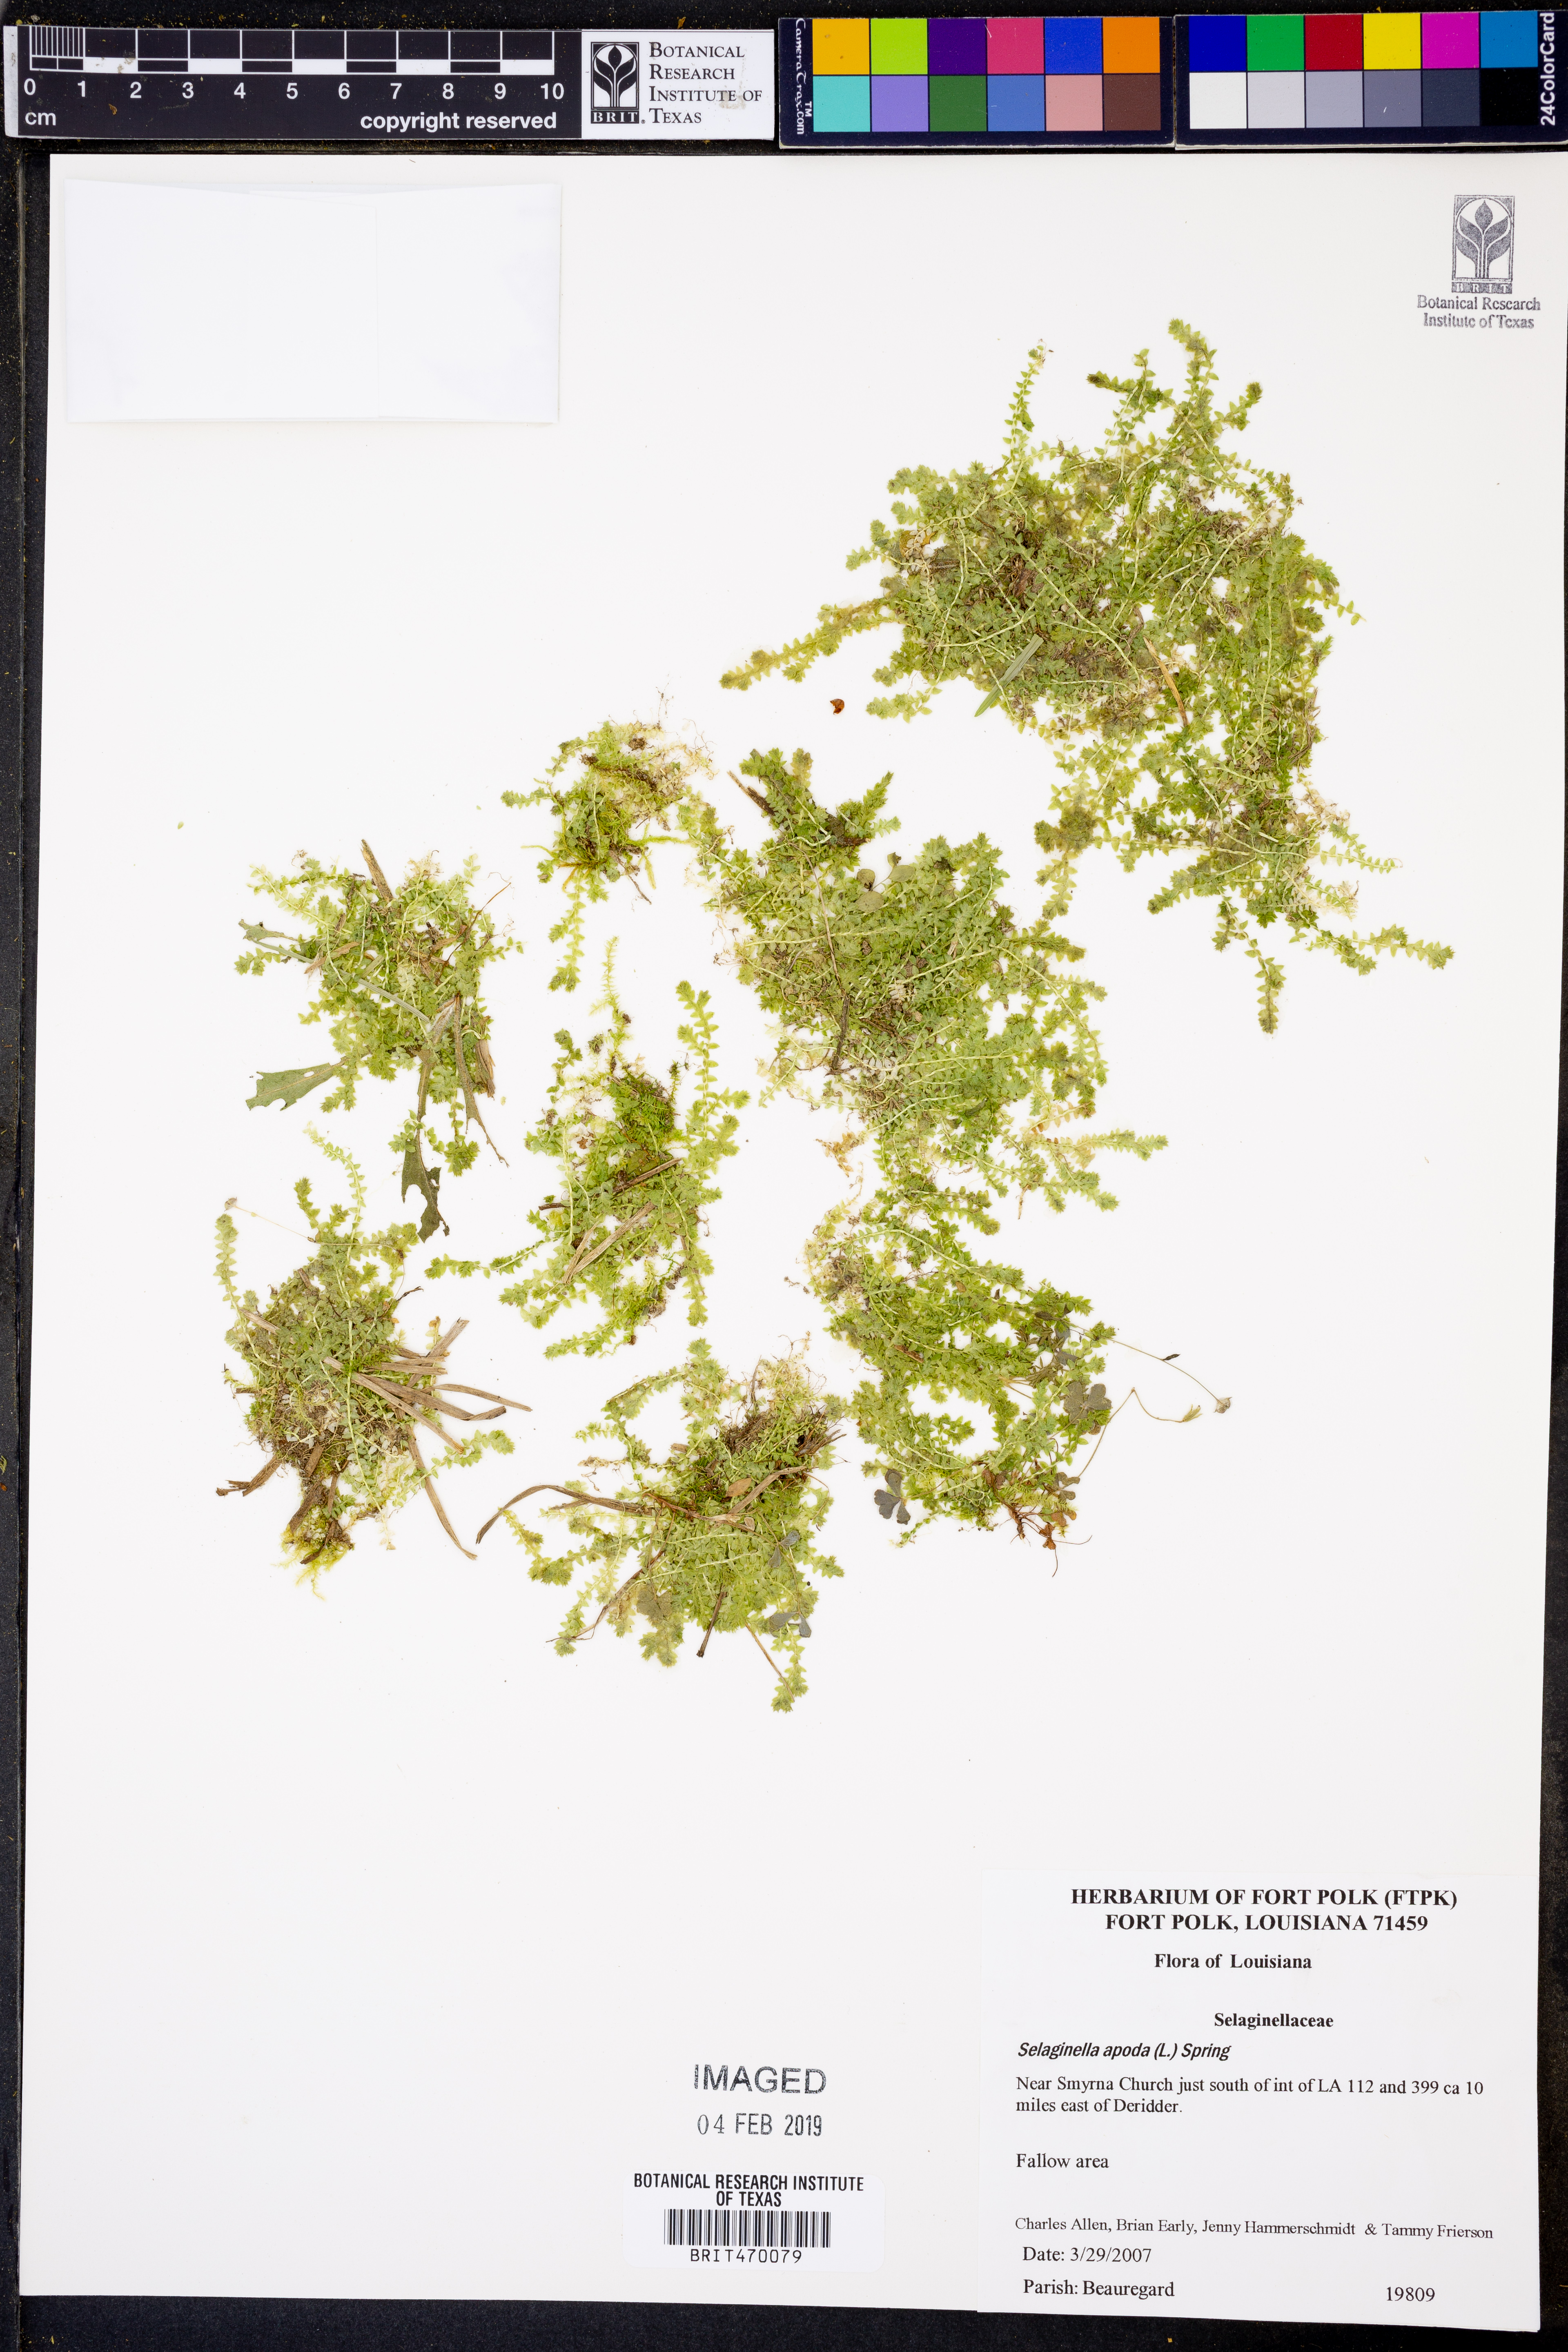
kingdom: Plantae
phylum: Tracheophyta
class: Lycopodiopsida
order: Selaginellales
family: Selaginellaceae
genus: Selaginella
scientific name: Selaginella apoda
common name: Creeping spikemoss
